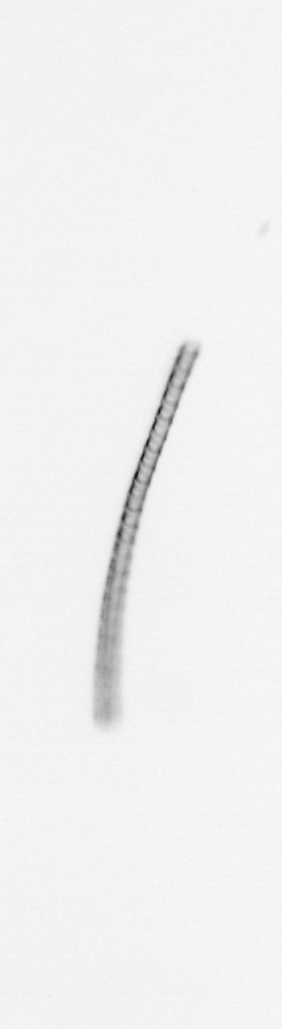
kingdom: Chromista
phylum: Ochrophyta
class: Bacillariophyceae
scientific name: Bacillariophyceae
